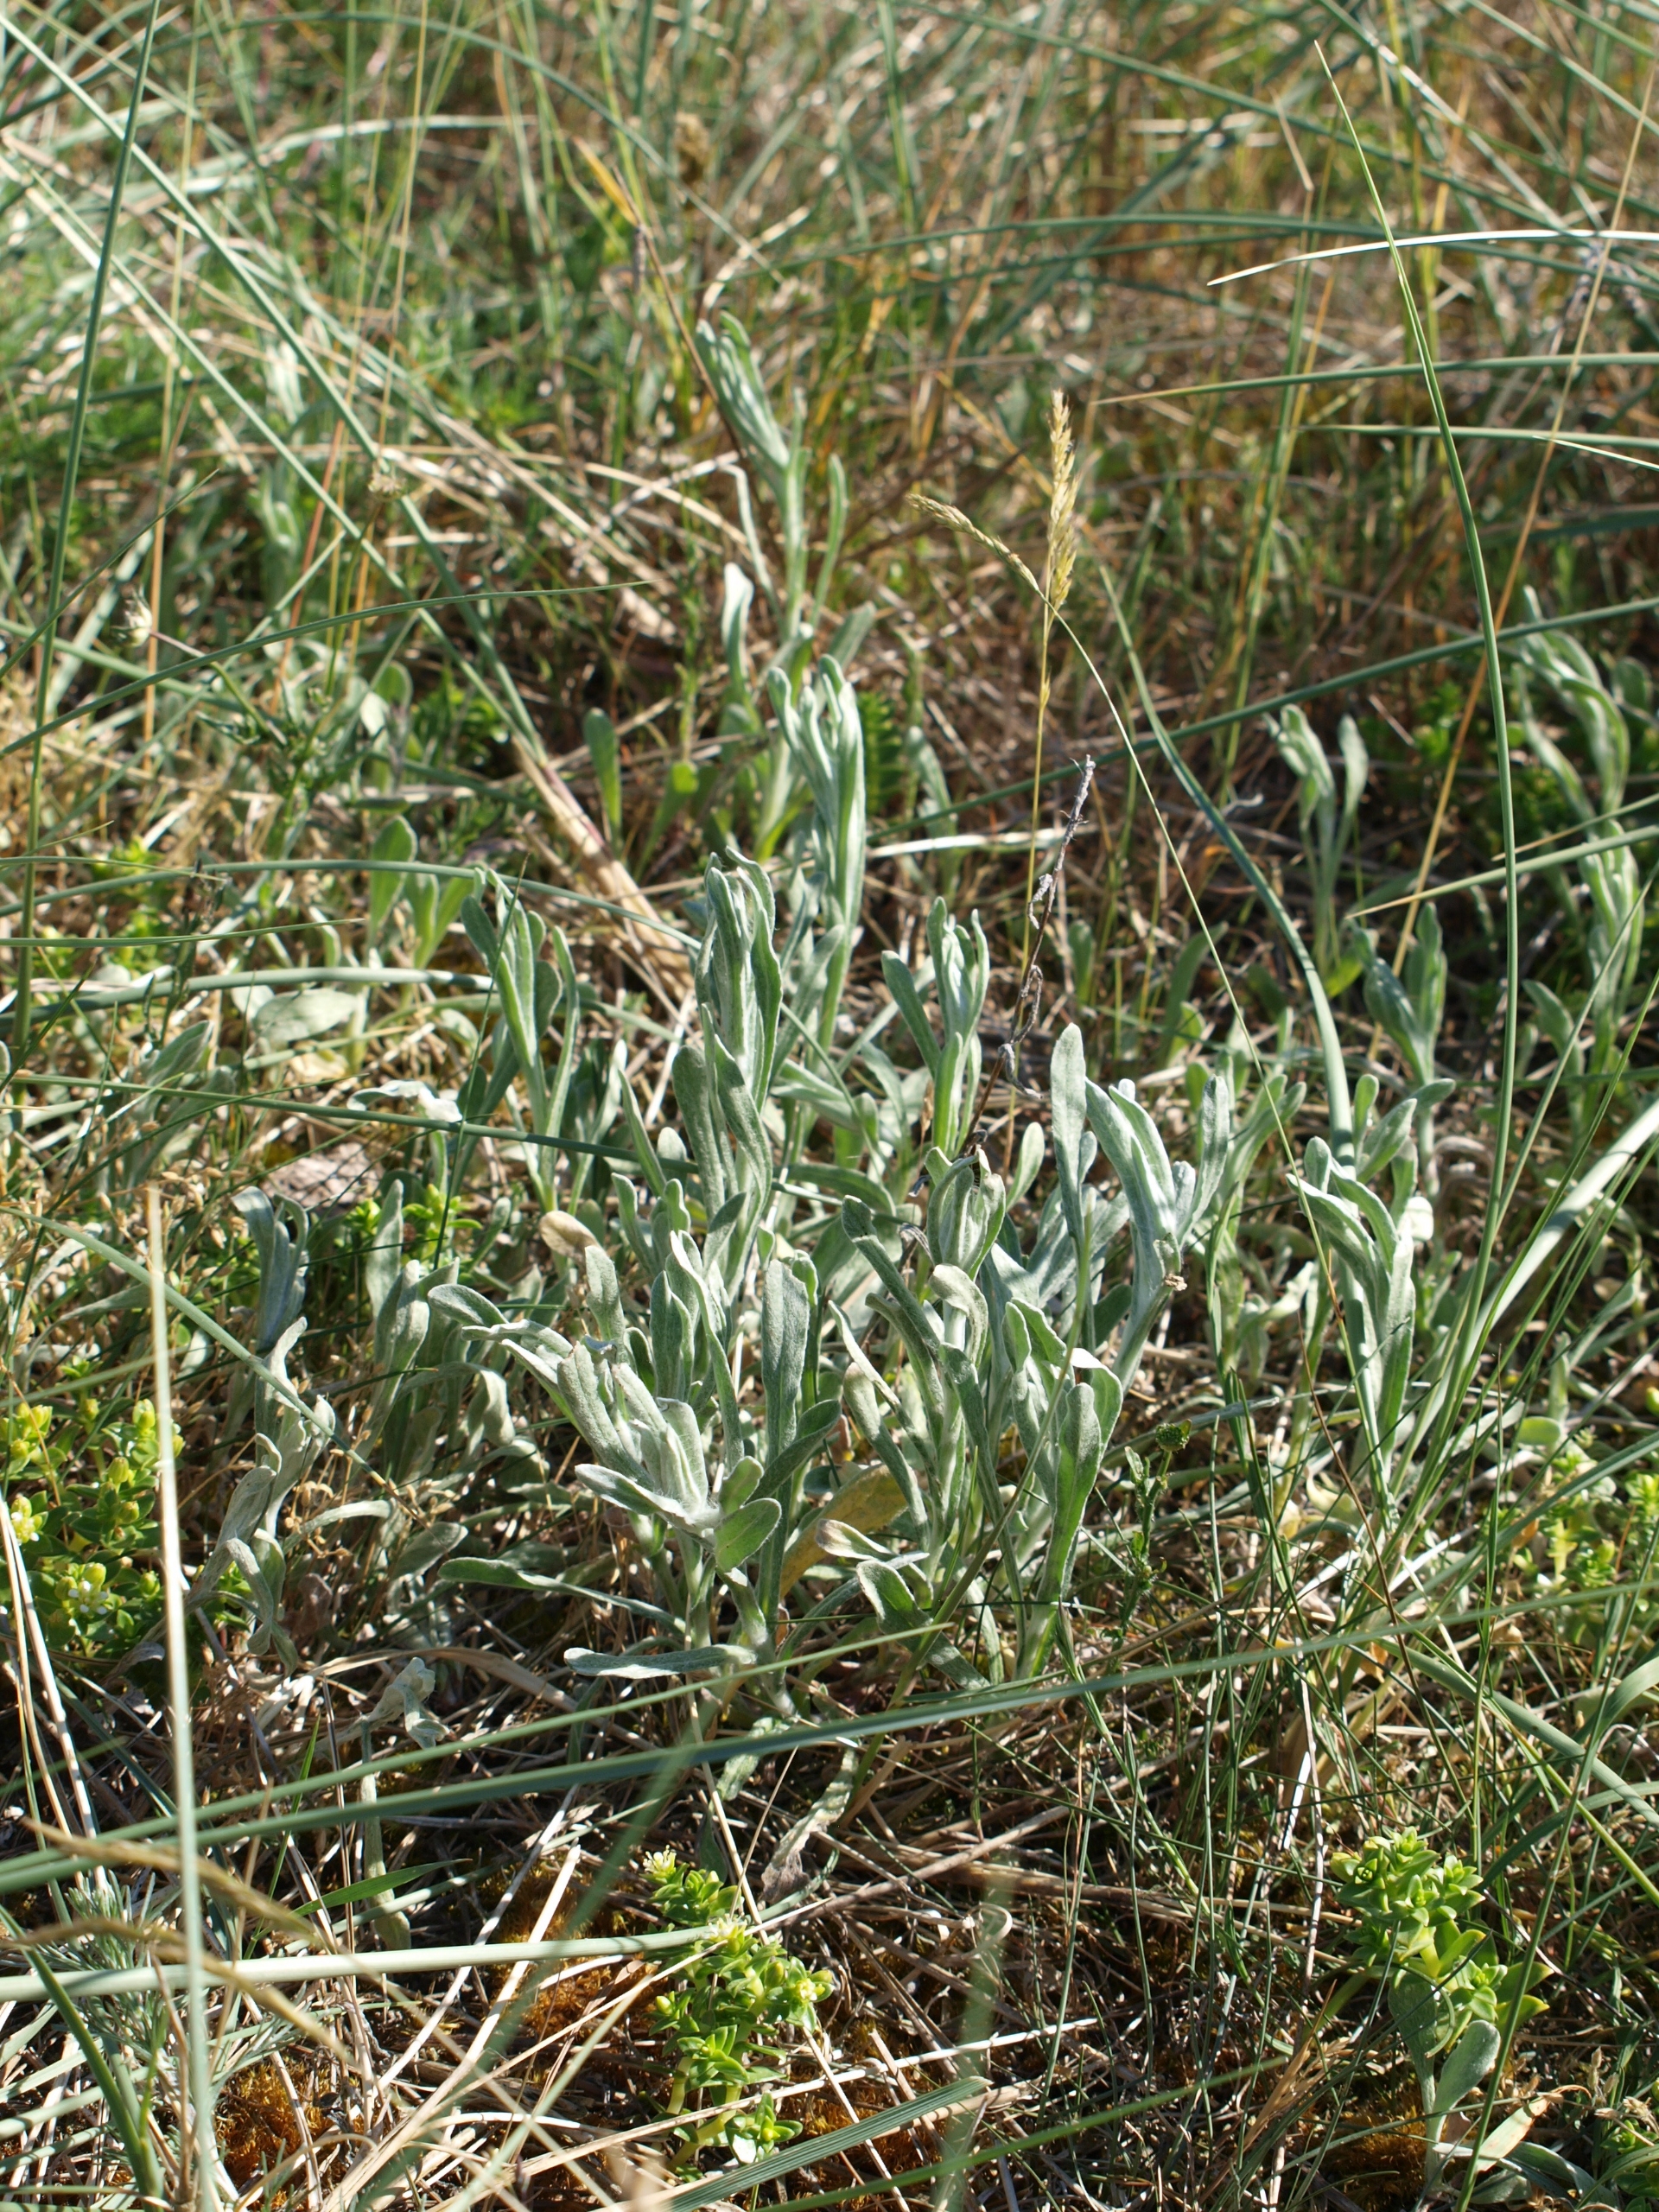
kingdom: Plantae
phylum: Tracheophyta
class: Magnoliopsida
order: Asterales
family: Asteraceae
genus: Helichrysum
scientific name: Helichrysum arenarium
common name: Gul evighedsblomst
